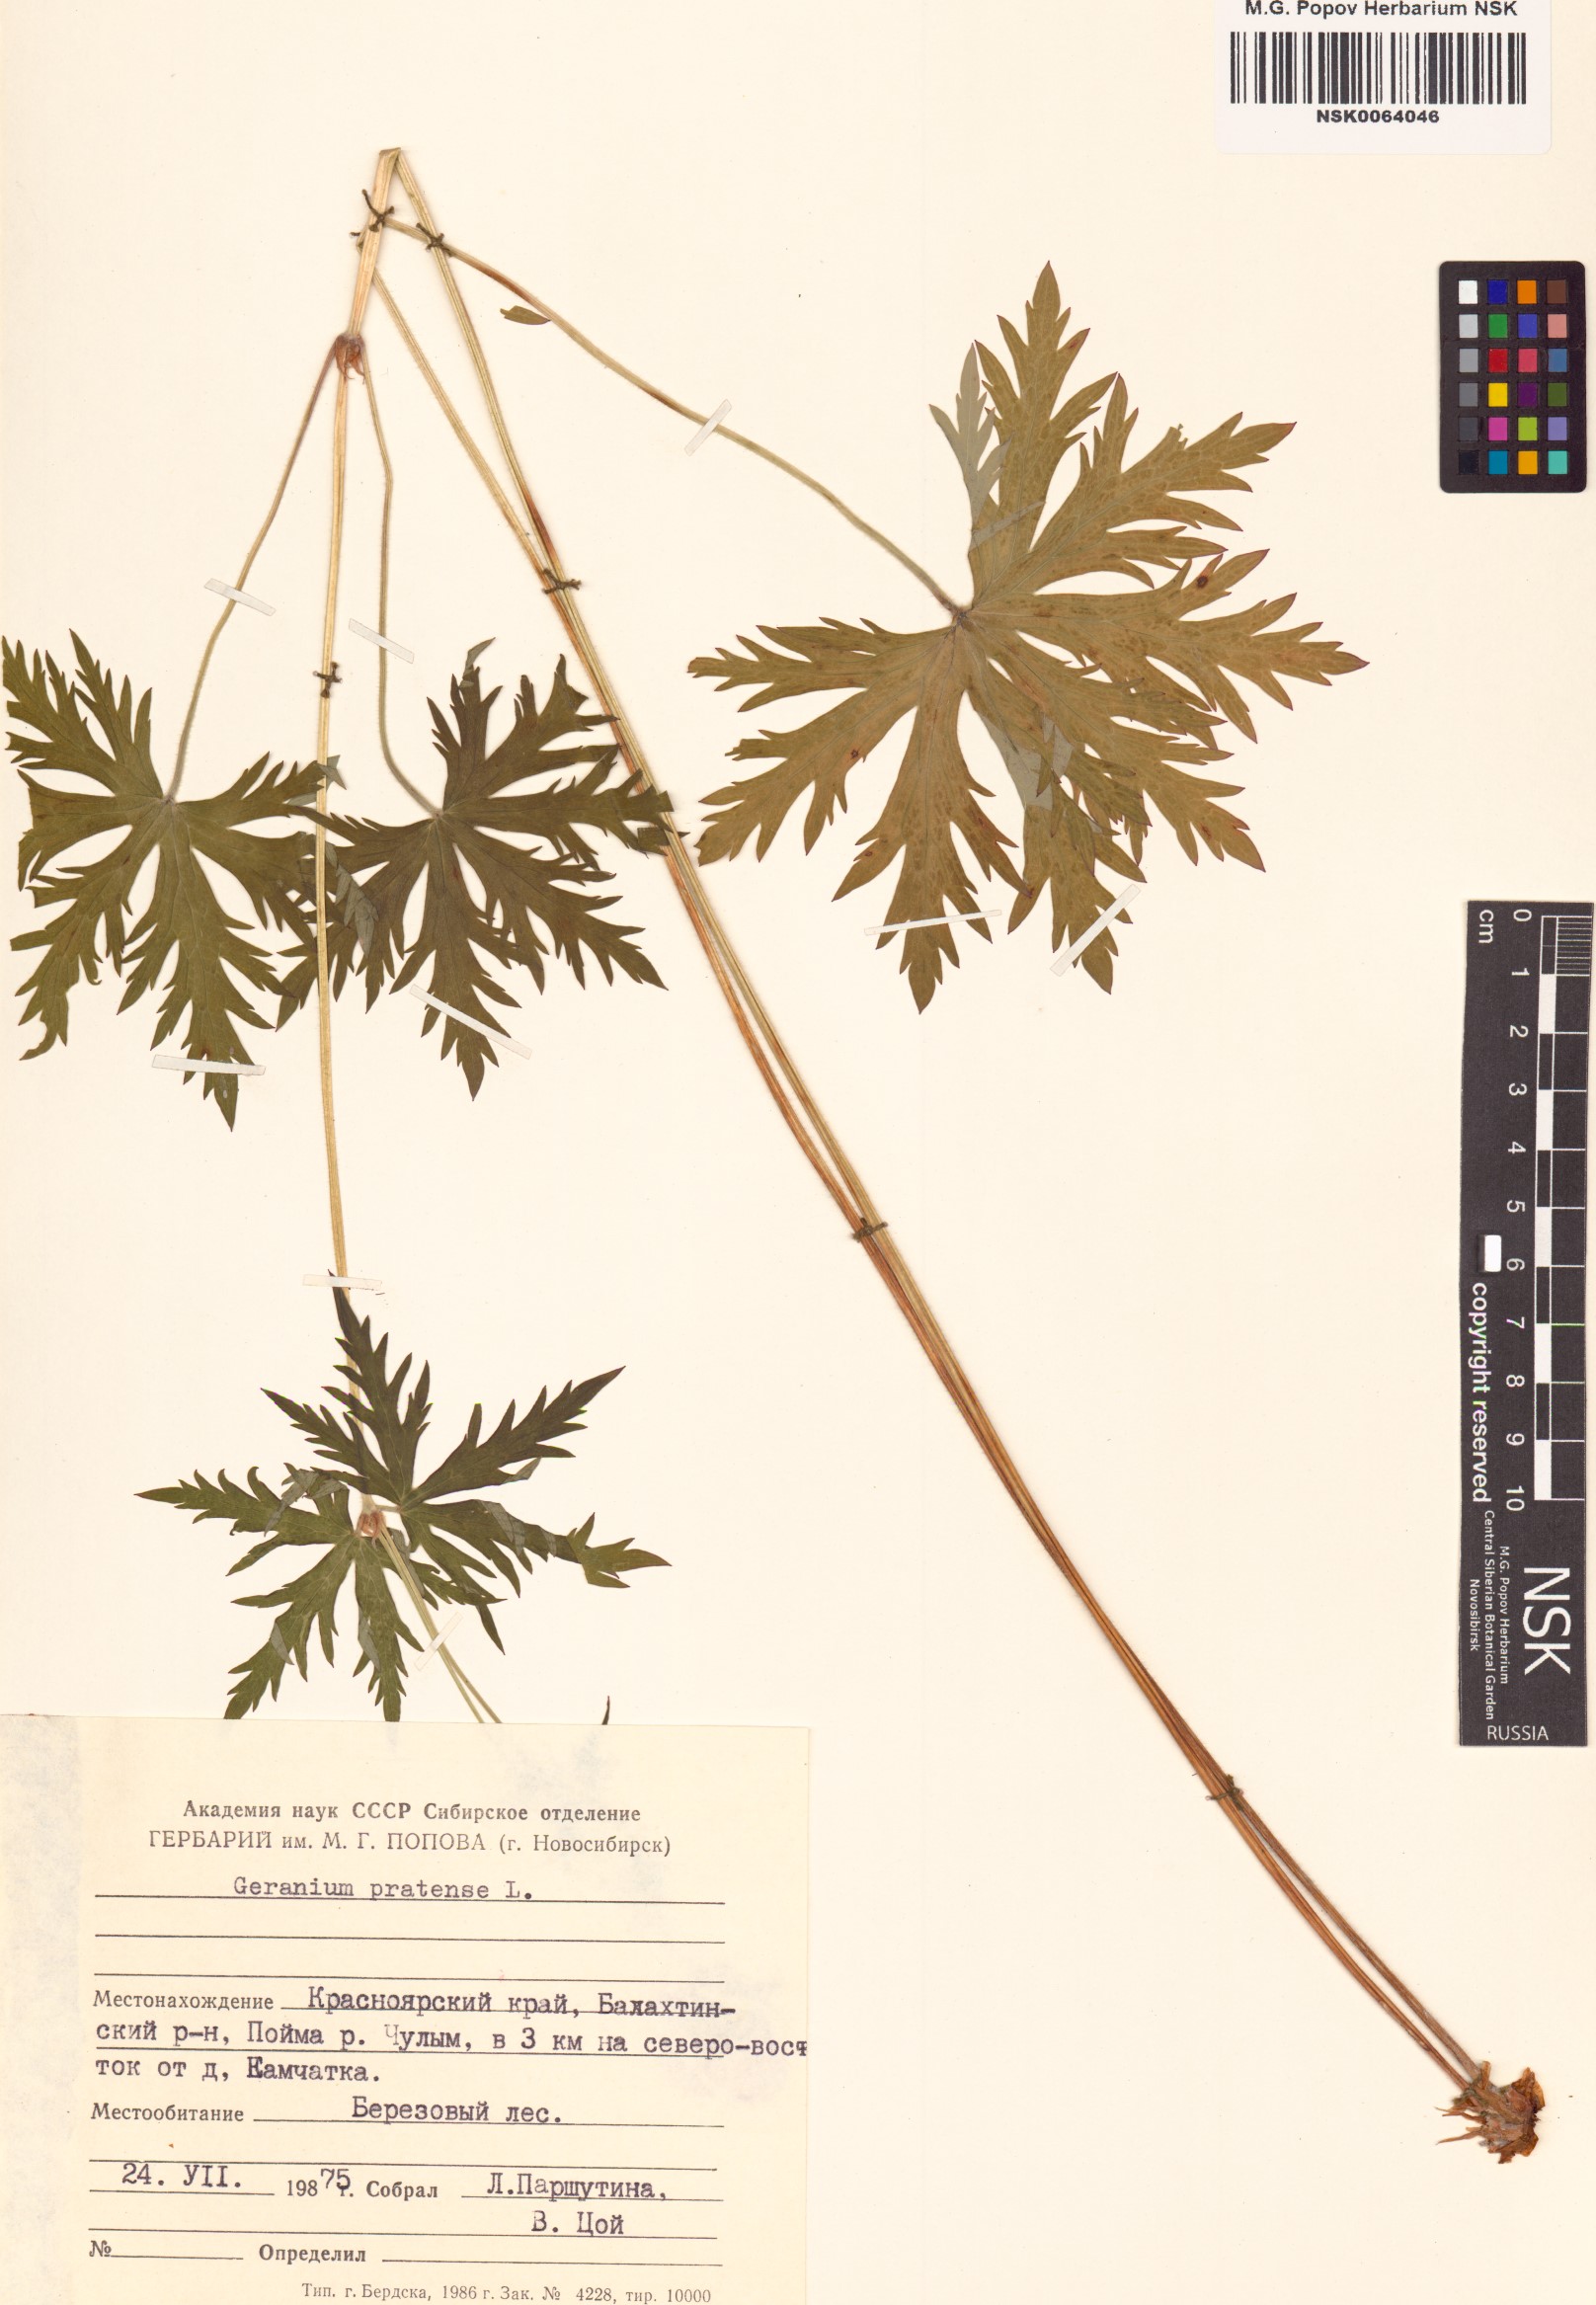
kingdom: Plantae
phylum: Tracheophyta
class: Magnoliopsida
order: Geraniales
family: Geraniaceae
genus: Geranium
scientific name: Geranium pratense
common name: Meadow crane's-bill
